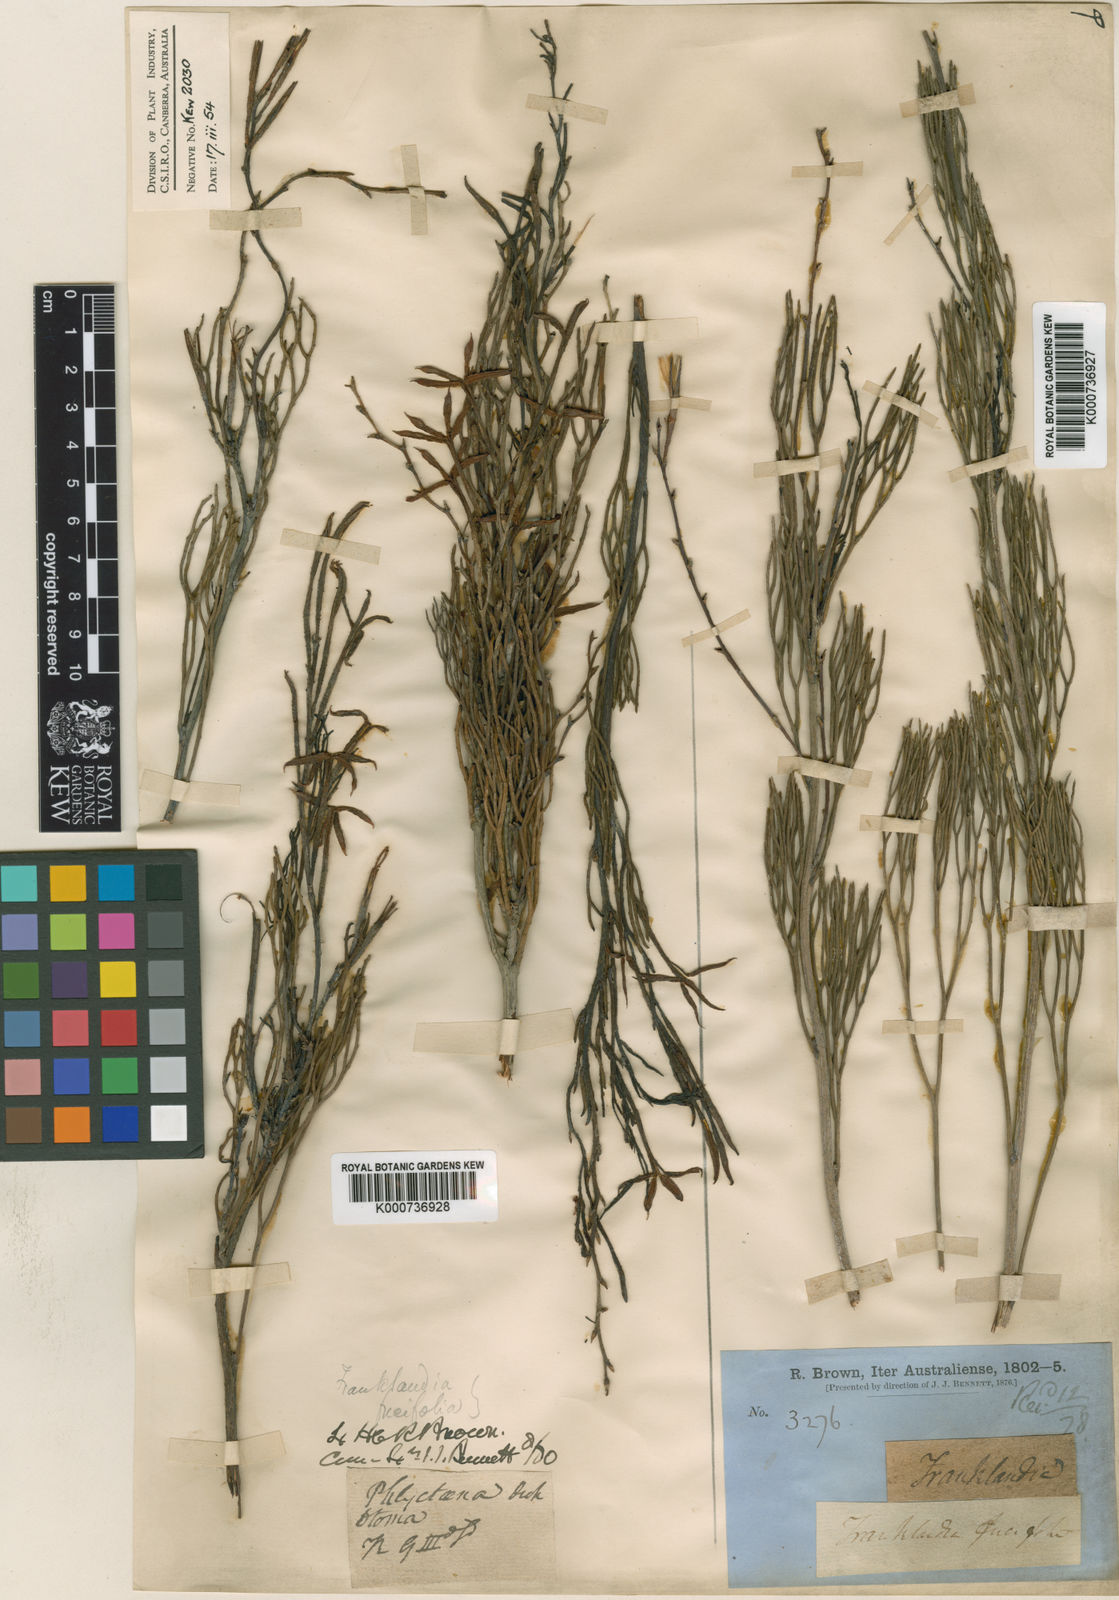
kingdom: Plantae
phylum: Tracheophyta
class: Magnoliopsida
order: Proteales
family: Proteaceae
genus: Franklandia
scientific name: Franklandia fucifolia
